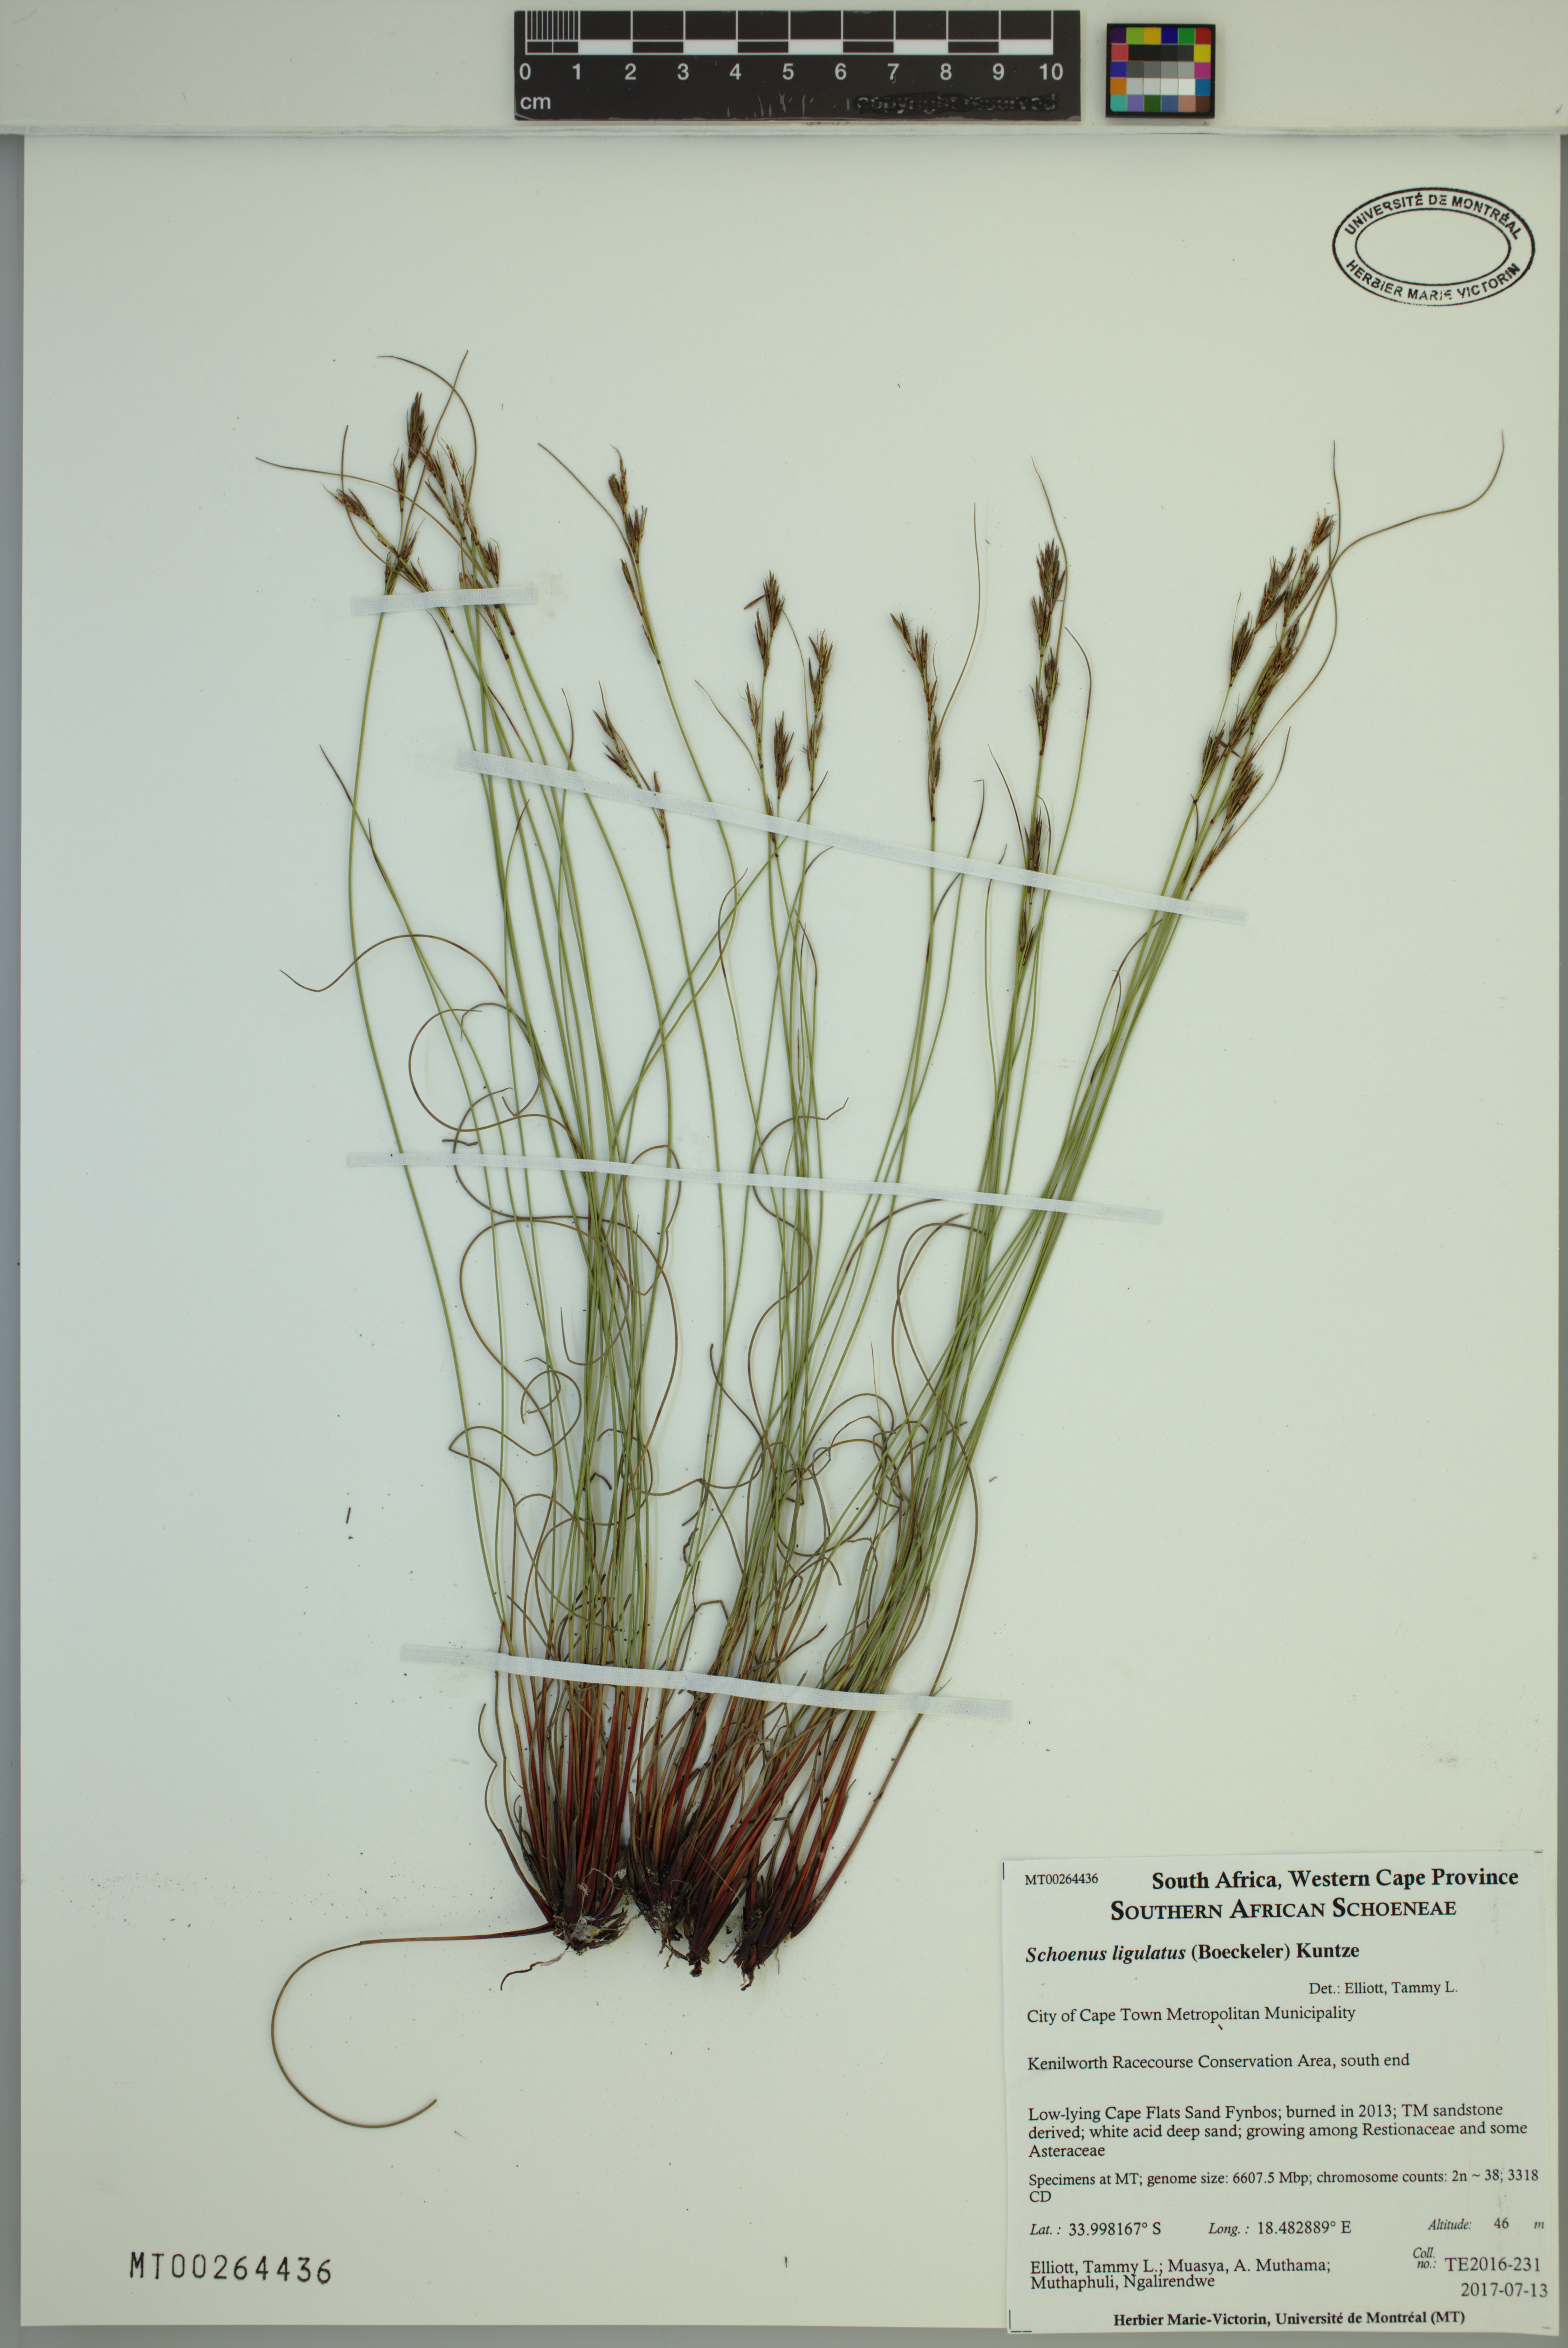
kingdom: Plantae
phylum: Tracheophyta
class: Liliopsida
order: Poales
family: Cyperaceae
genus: Schoenus
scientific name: Schoenus ligulatus
